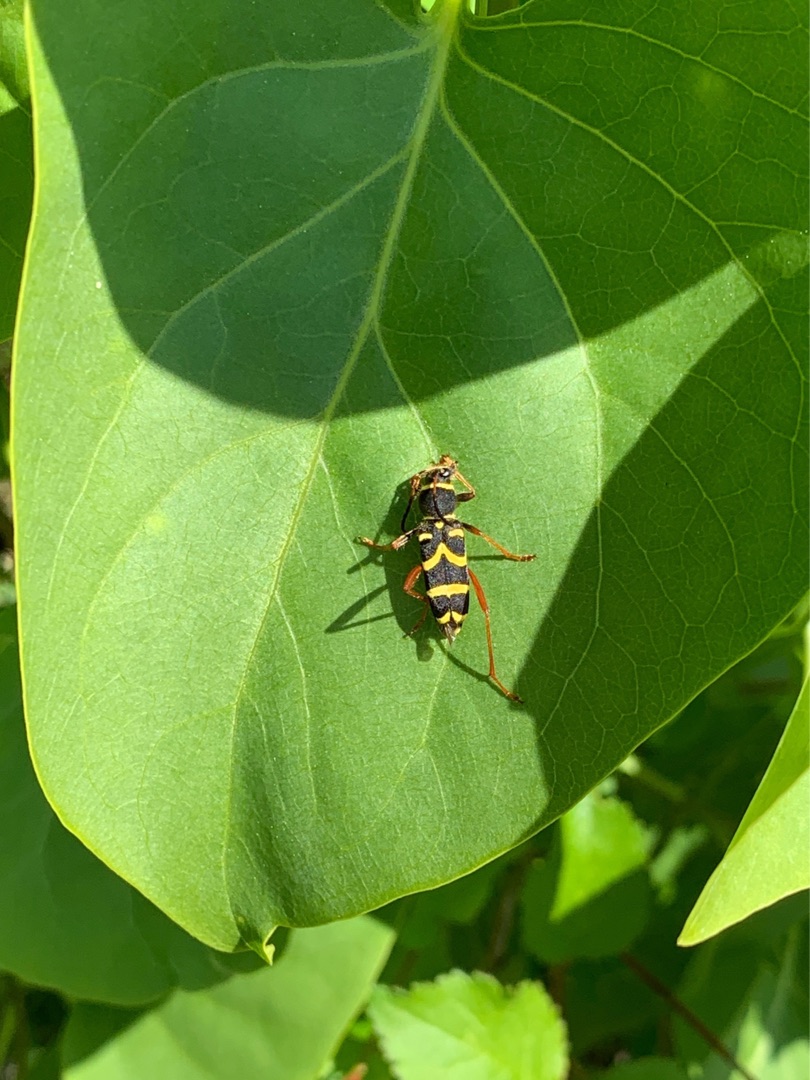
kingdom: Animalia
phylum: Arthropoda
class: Insecta
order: Coleoptera
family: Cerambycidae
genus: Clytus
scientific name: Clytus arietis
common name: Lille hvepsebuk
